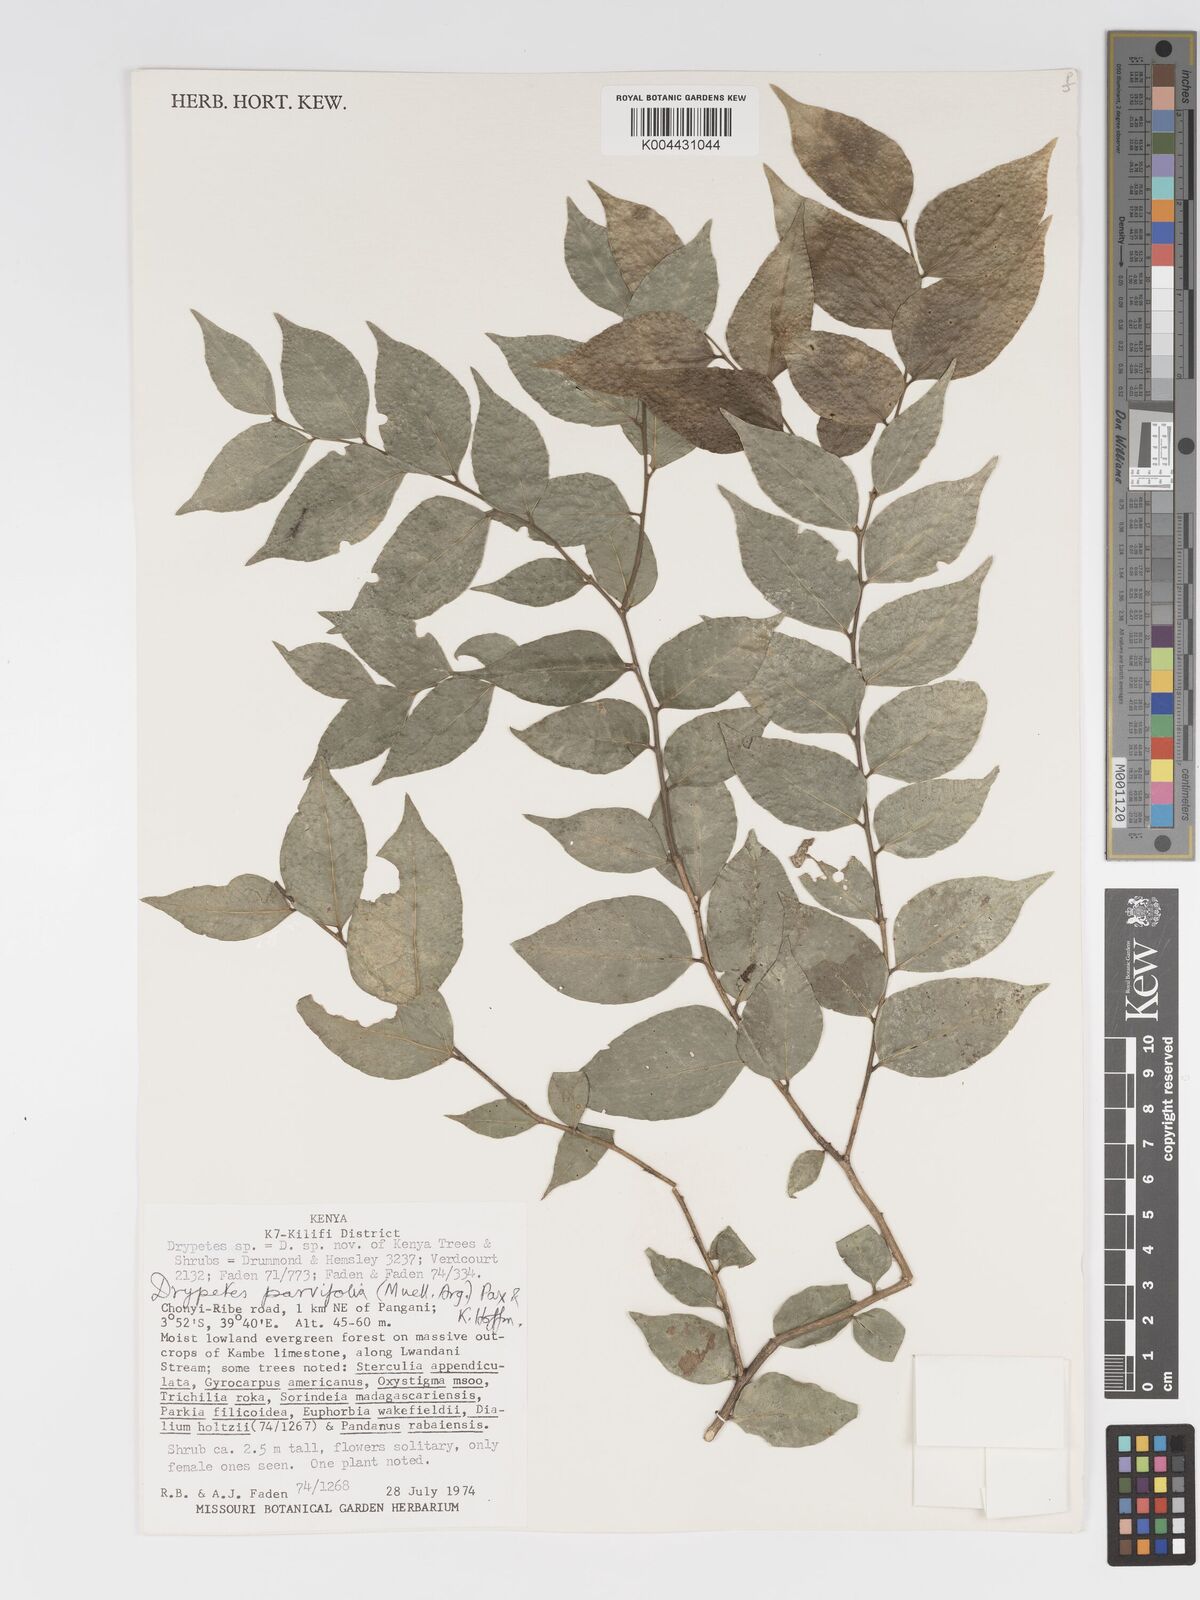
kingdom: Plantae
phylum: Tracheophyta
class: Magnoliopsida
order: Malpighiales
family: Putranjivaceae
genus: Drypetes
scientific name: Drypetes parvifolia
